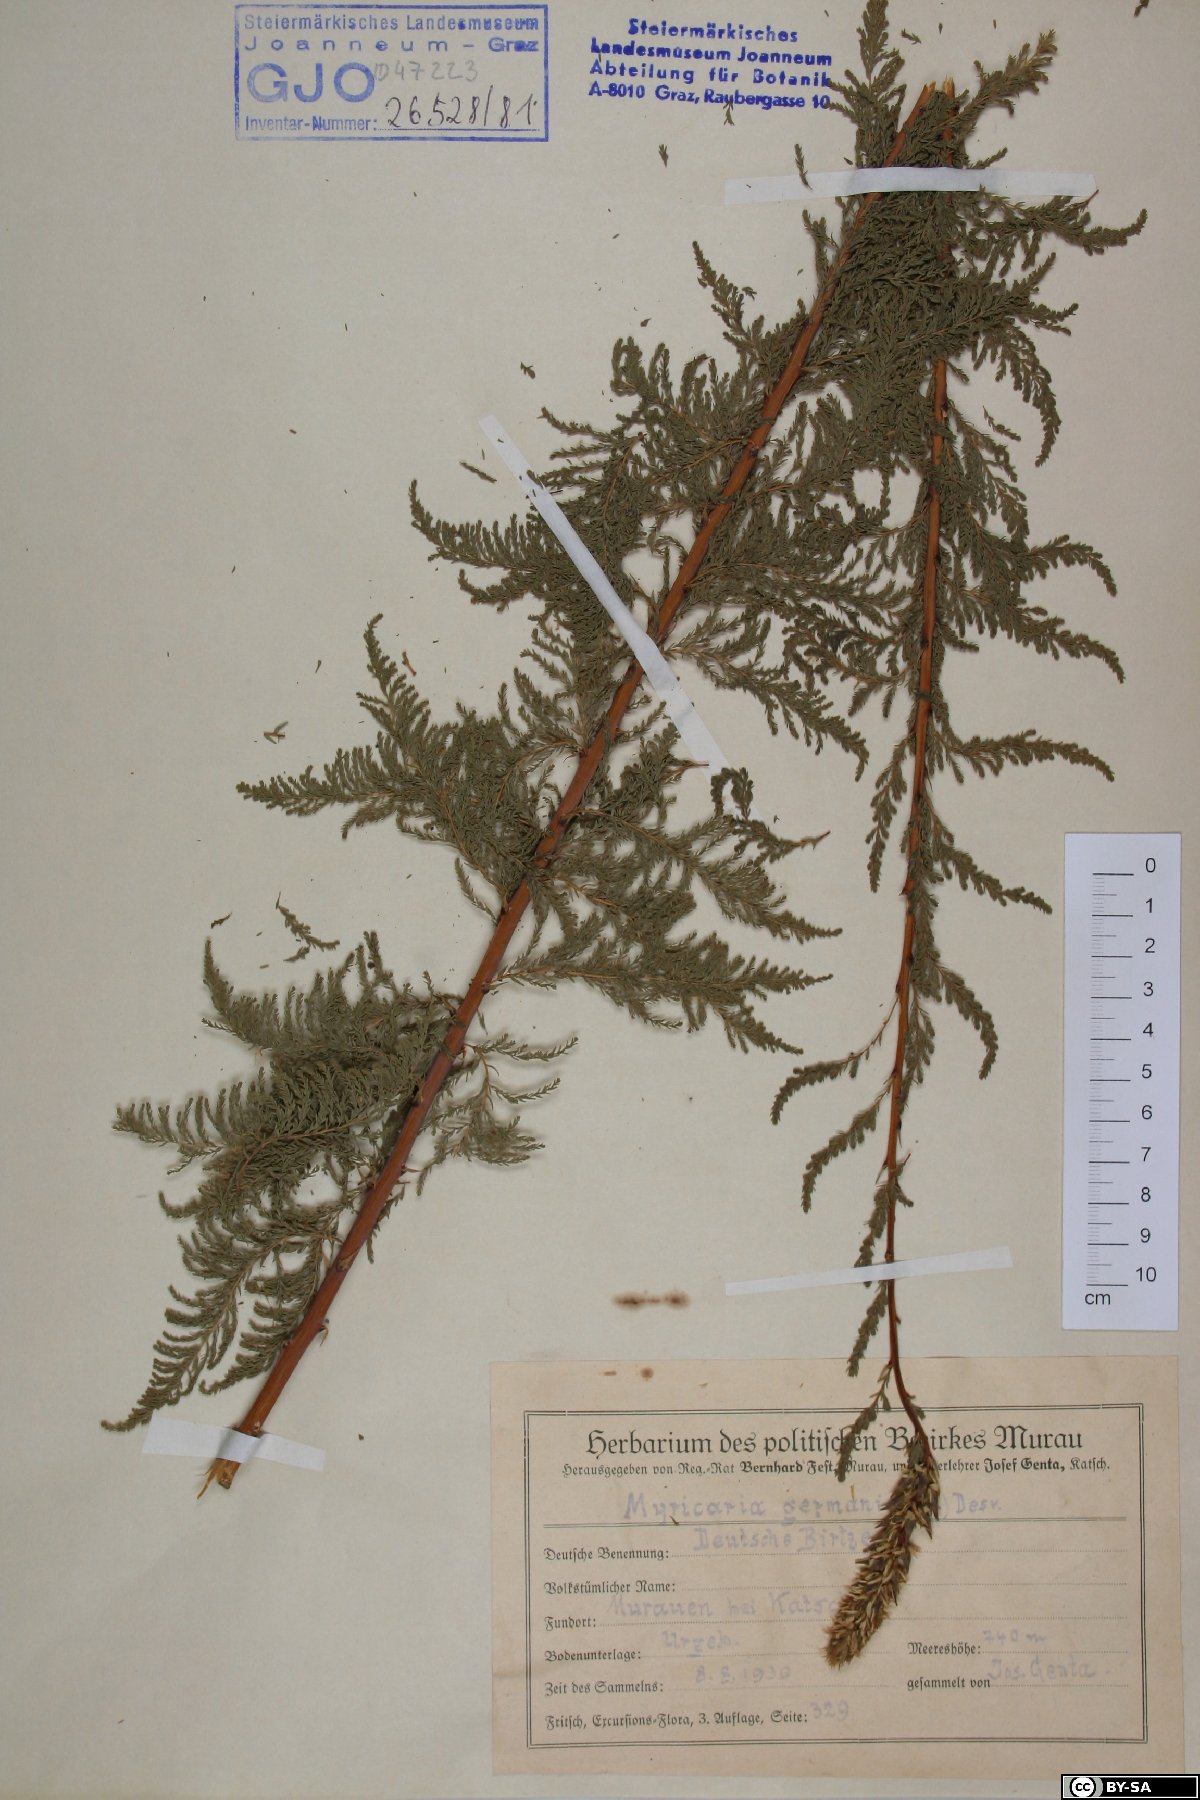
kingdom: Plantae
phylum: Tracheophyta
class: Magnoliopsida
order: Caryophyllales
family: Tamaricaceae
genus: Myricaria
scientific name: Myricaria germanica
